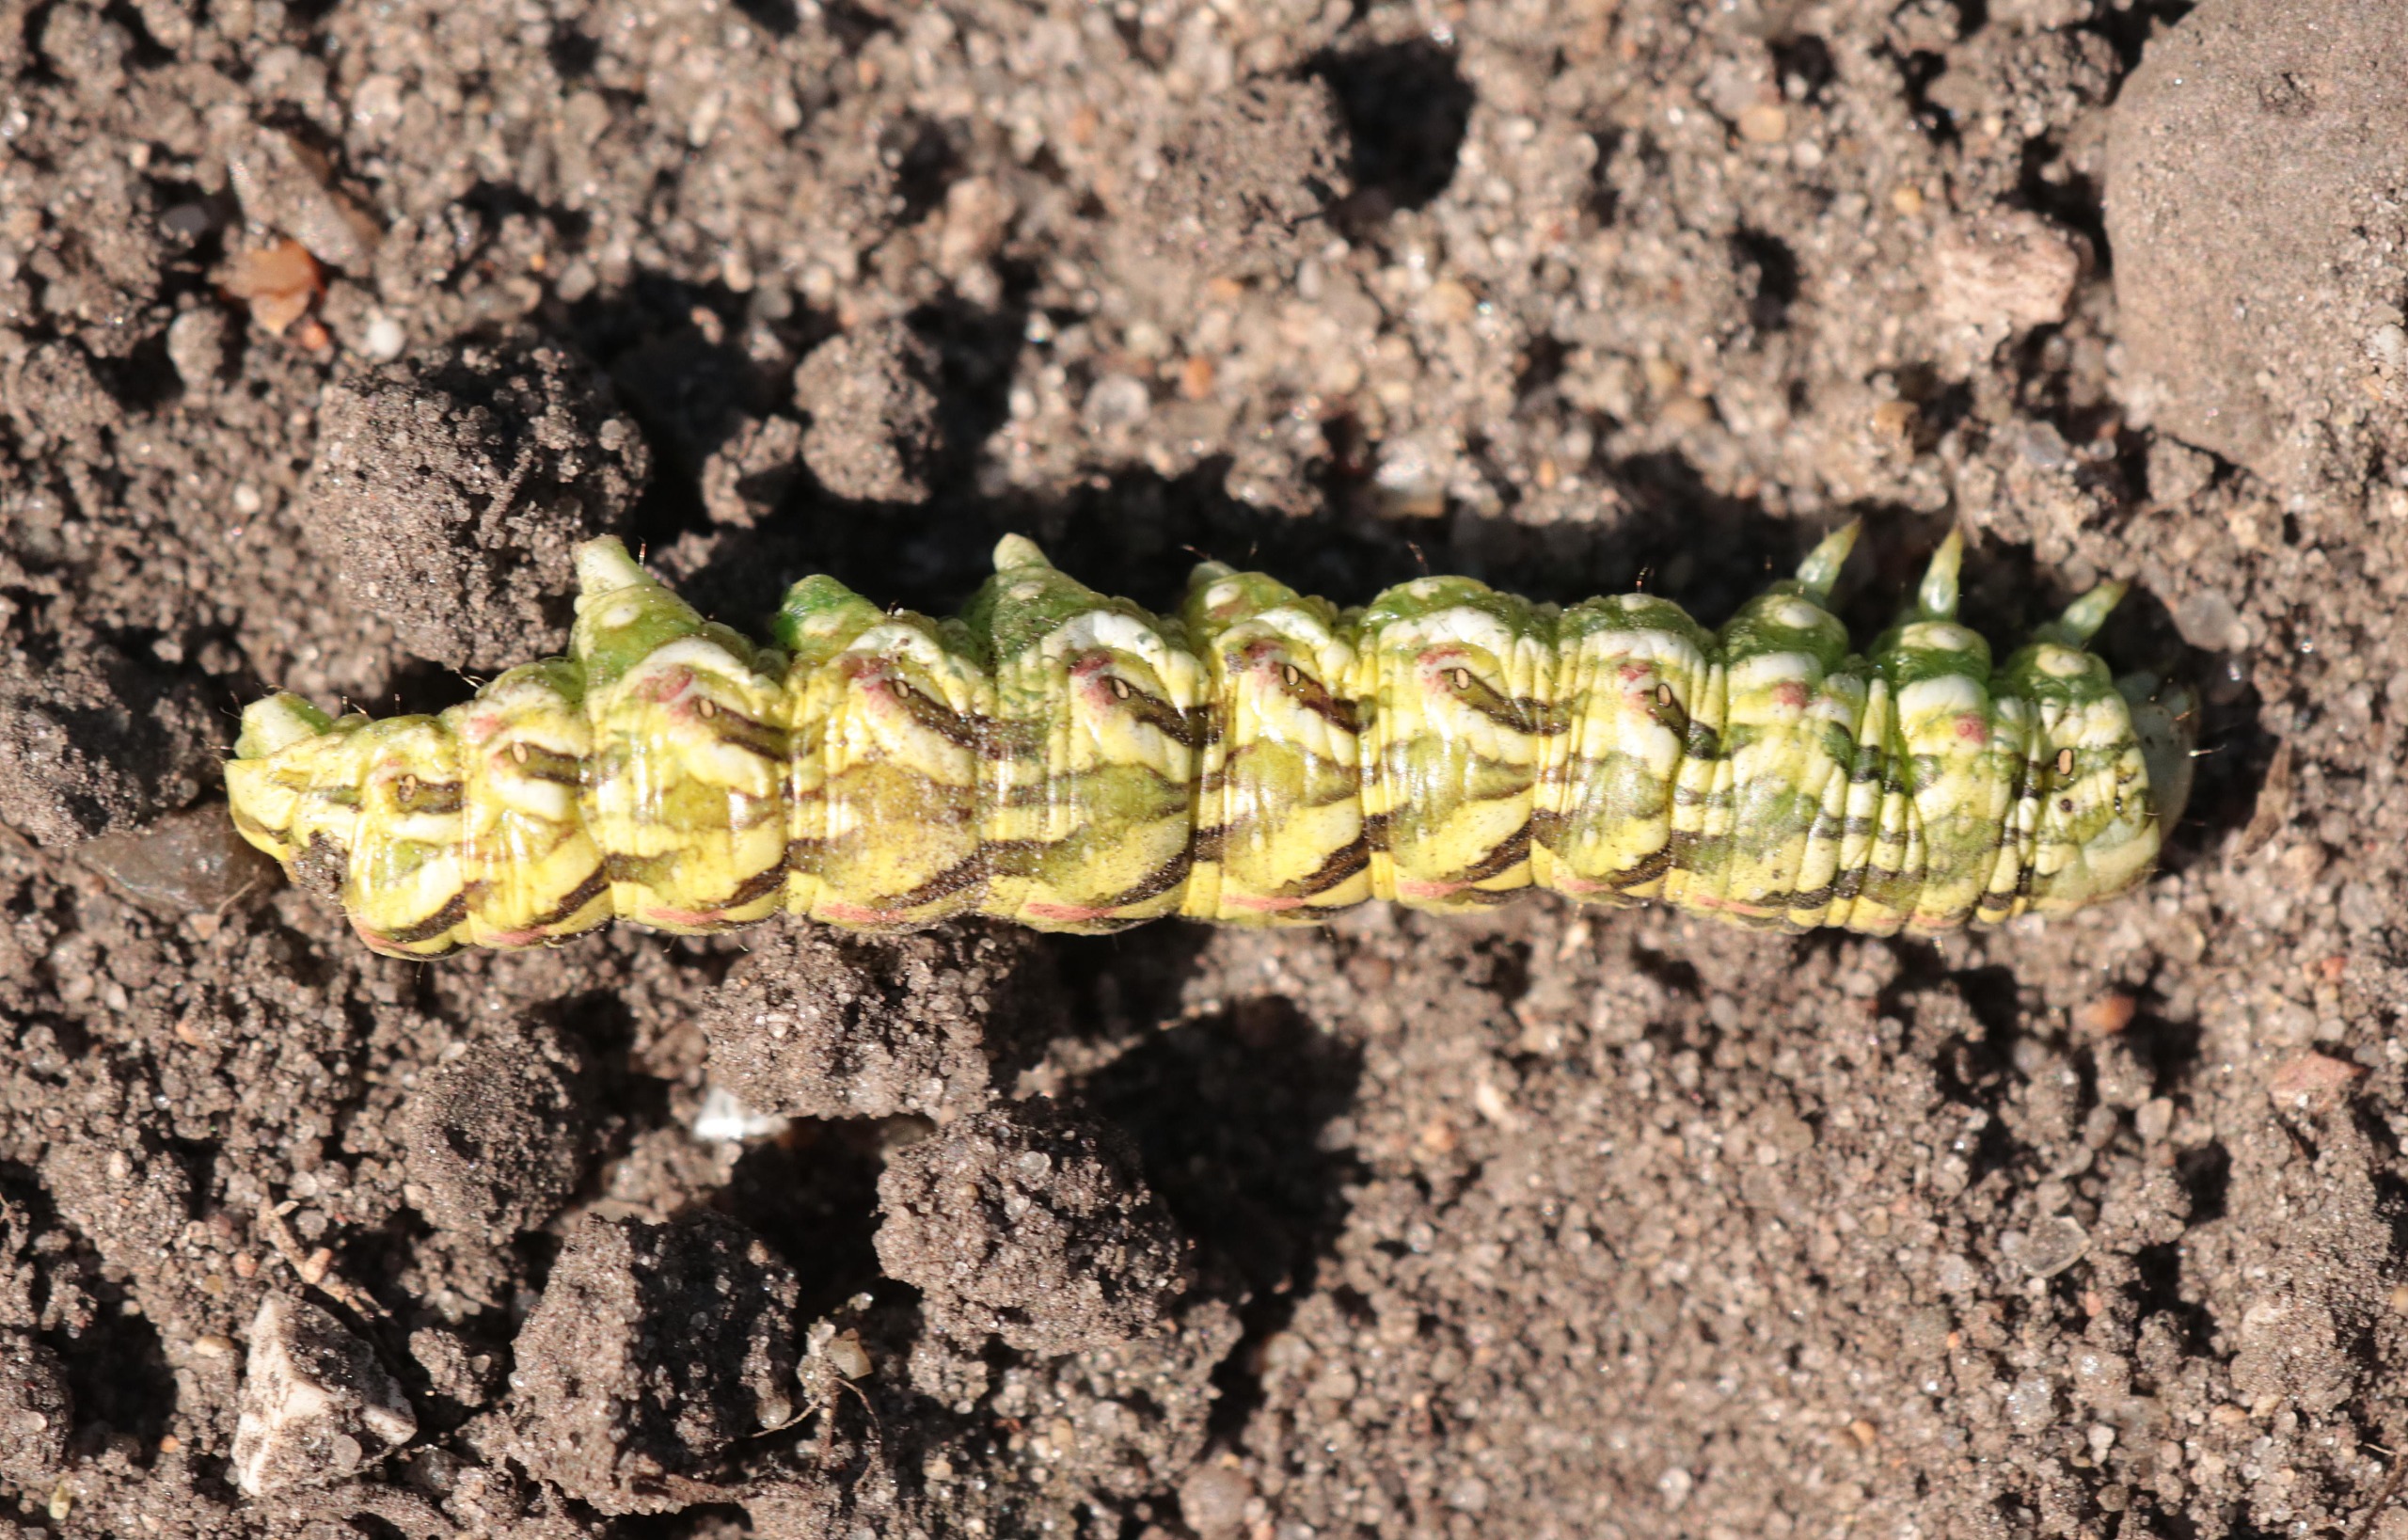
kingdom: Animalia
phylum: Arthropoda
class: Insecta
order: Lepidoptera
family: Noctuidae
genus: Cucullia
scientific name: Cucullia chamomillae
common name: Kamille-hætteugle
